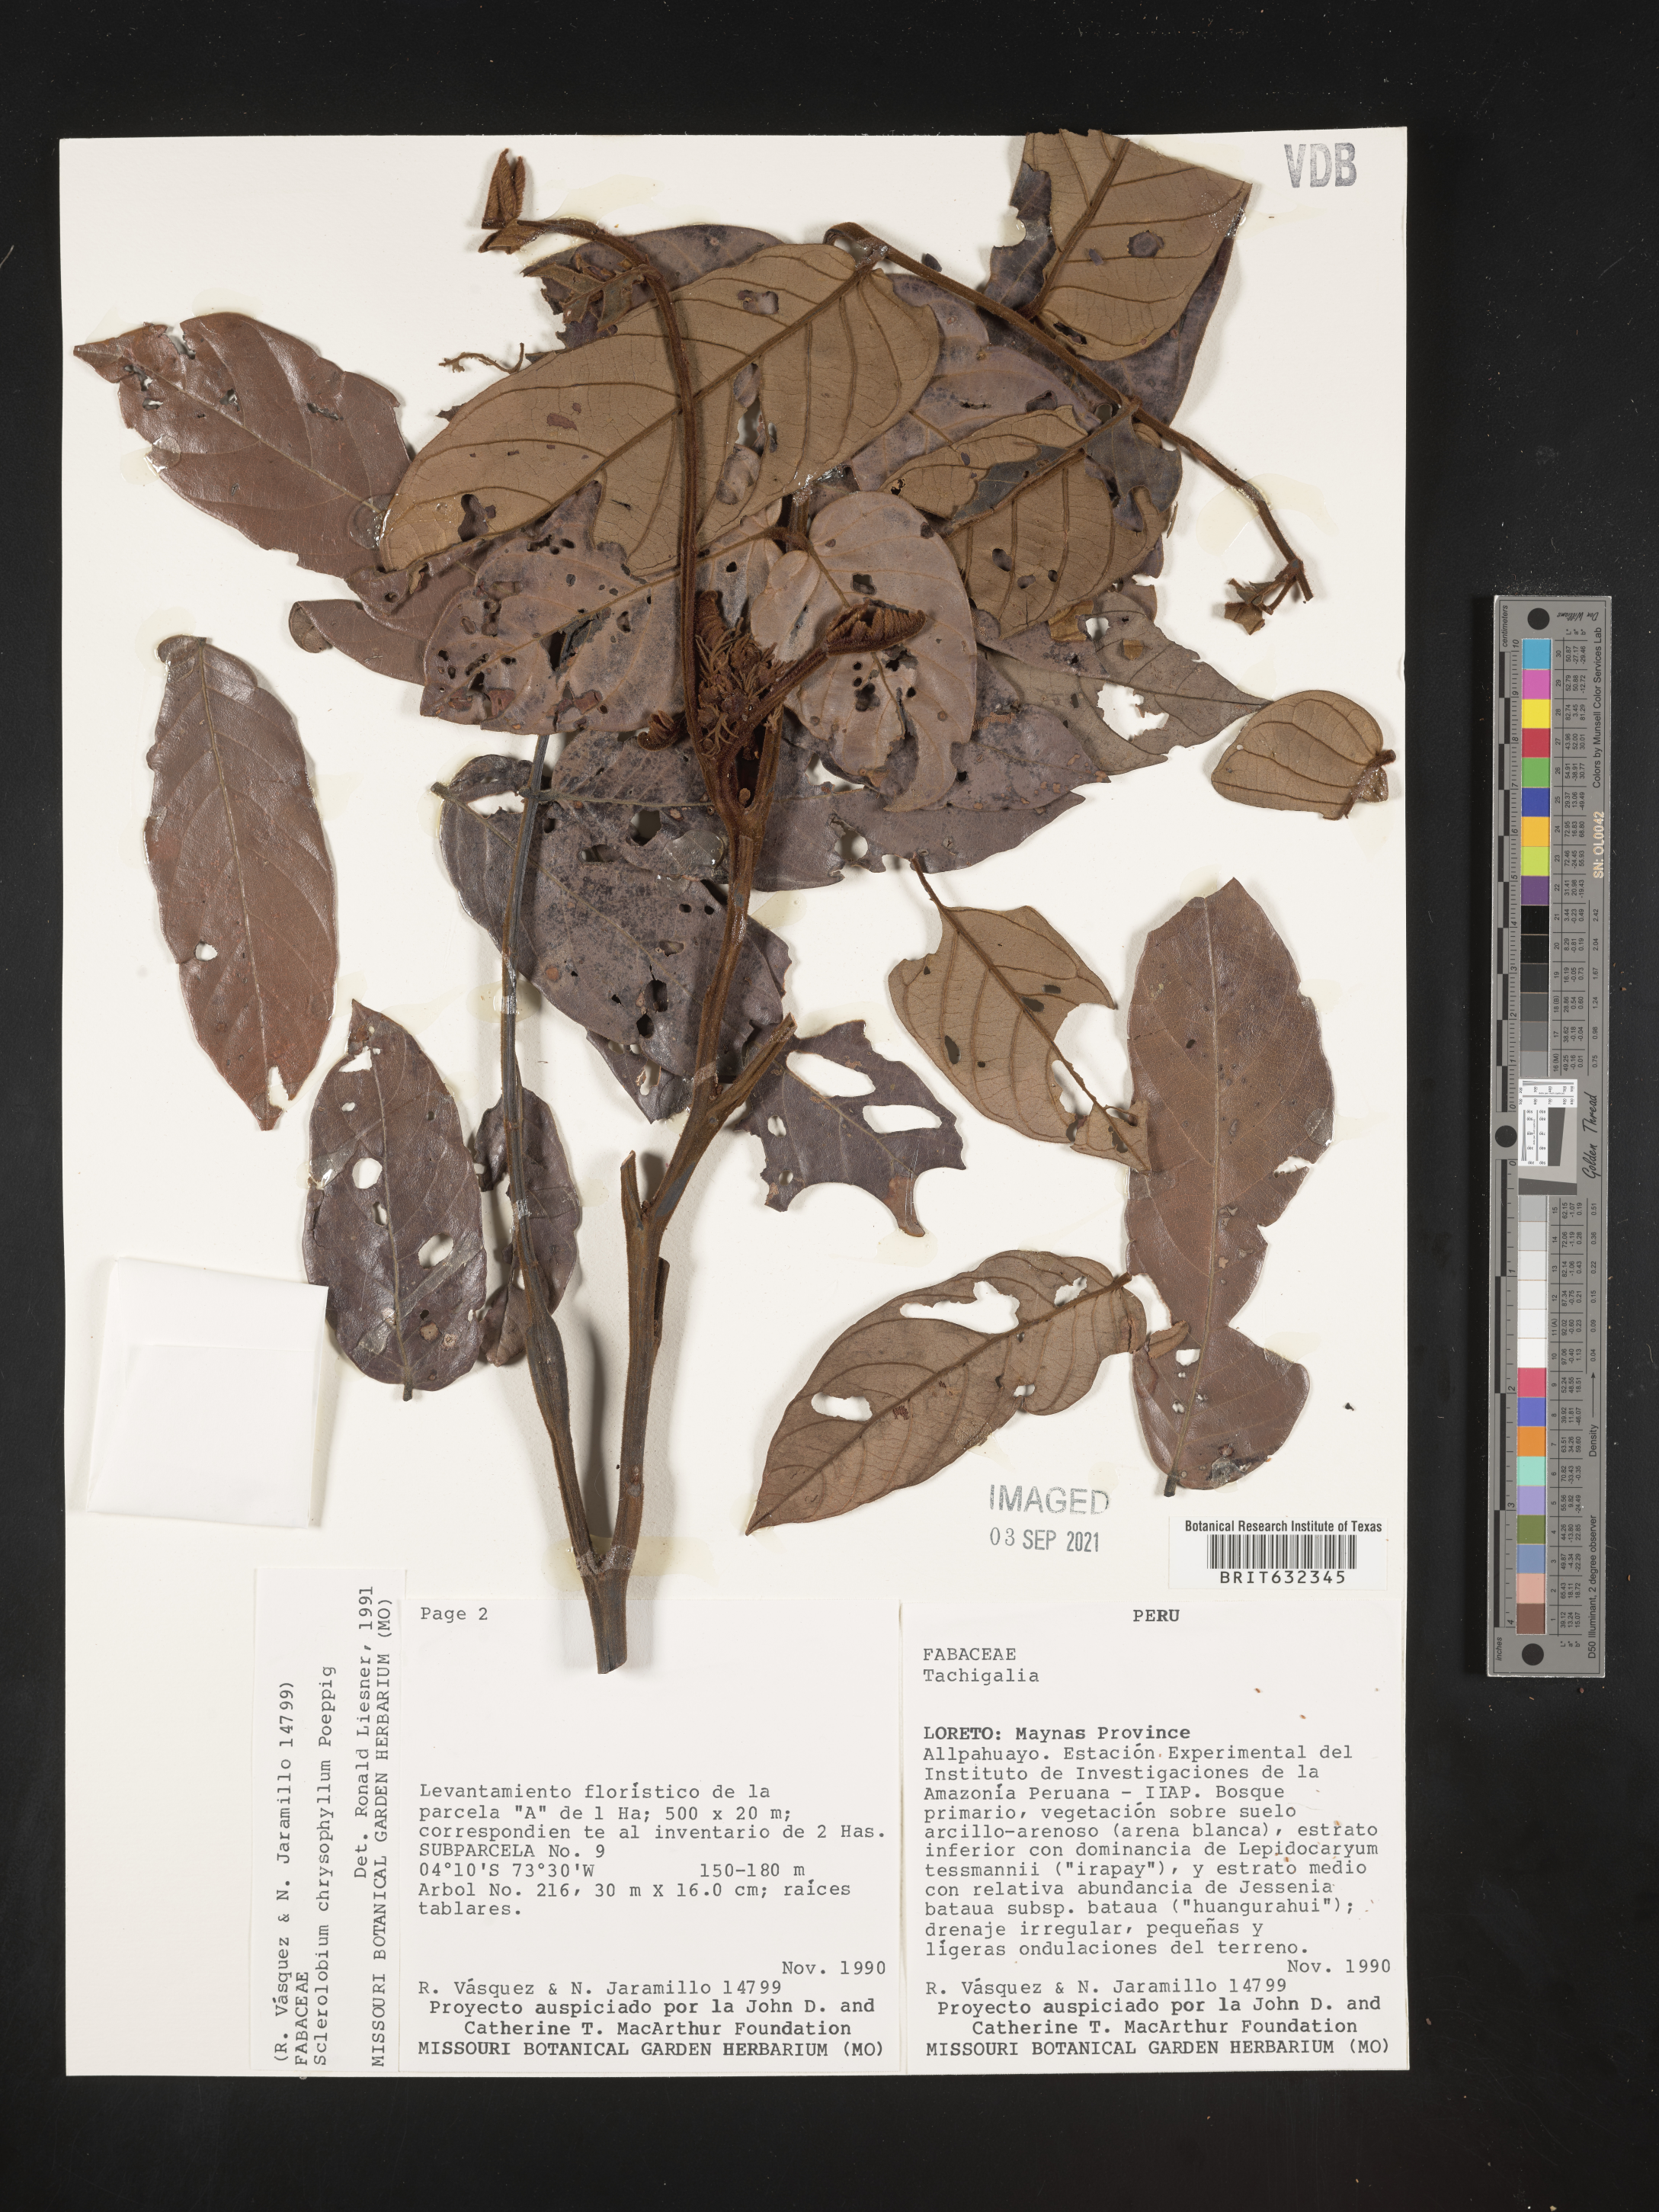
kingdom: Plantae
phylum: Tracheophyta
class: Magnoliopsida
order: Fabales
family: Fabaceae
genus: Tachigali
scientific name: Tachigali
